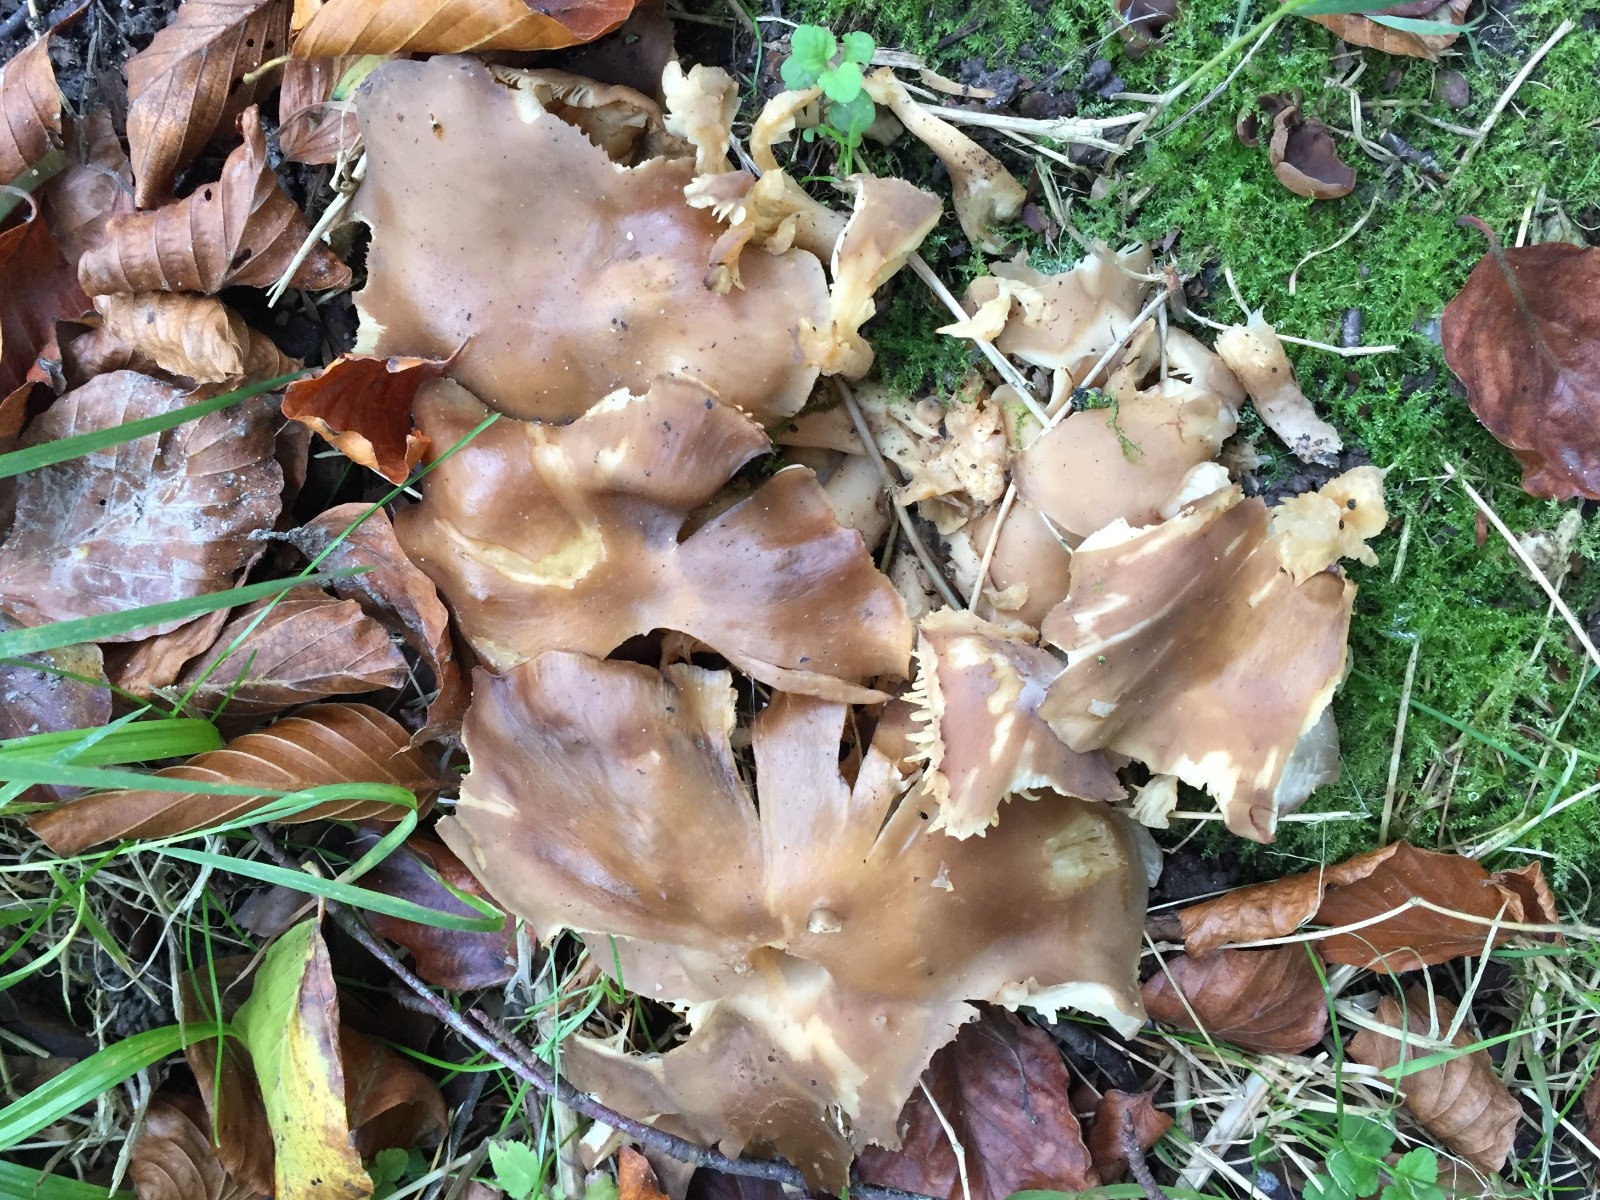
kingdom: Fungi
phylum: Basidiomycota
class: Agaricomycetes
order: Agaricales
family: Lyophyllaceae
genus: Lyophyllum
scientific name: Lyophyllum decastes
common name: røggrå gråblad
